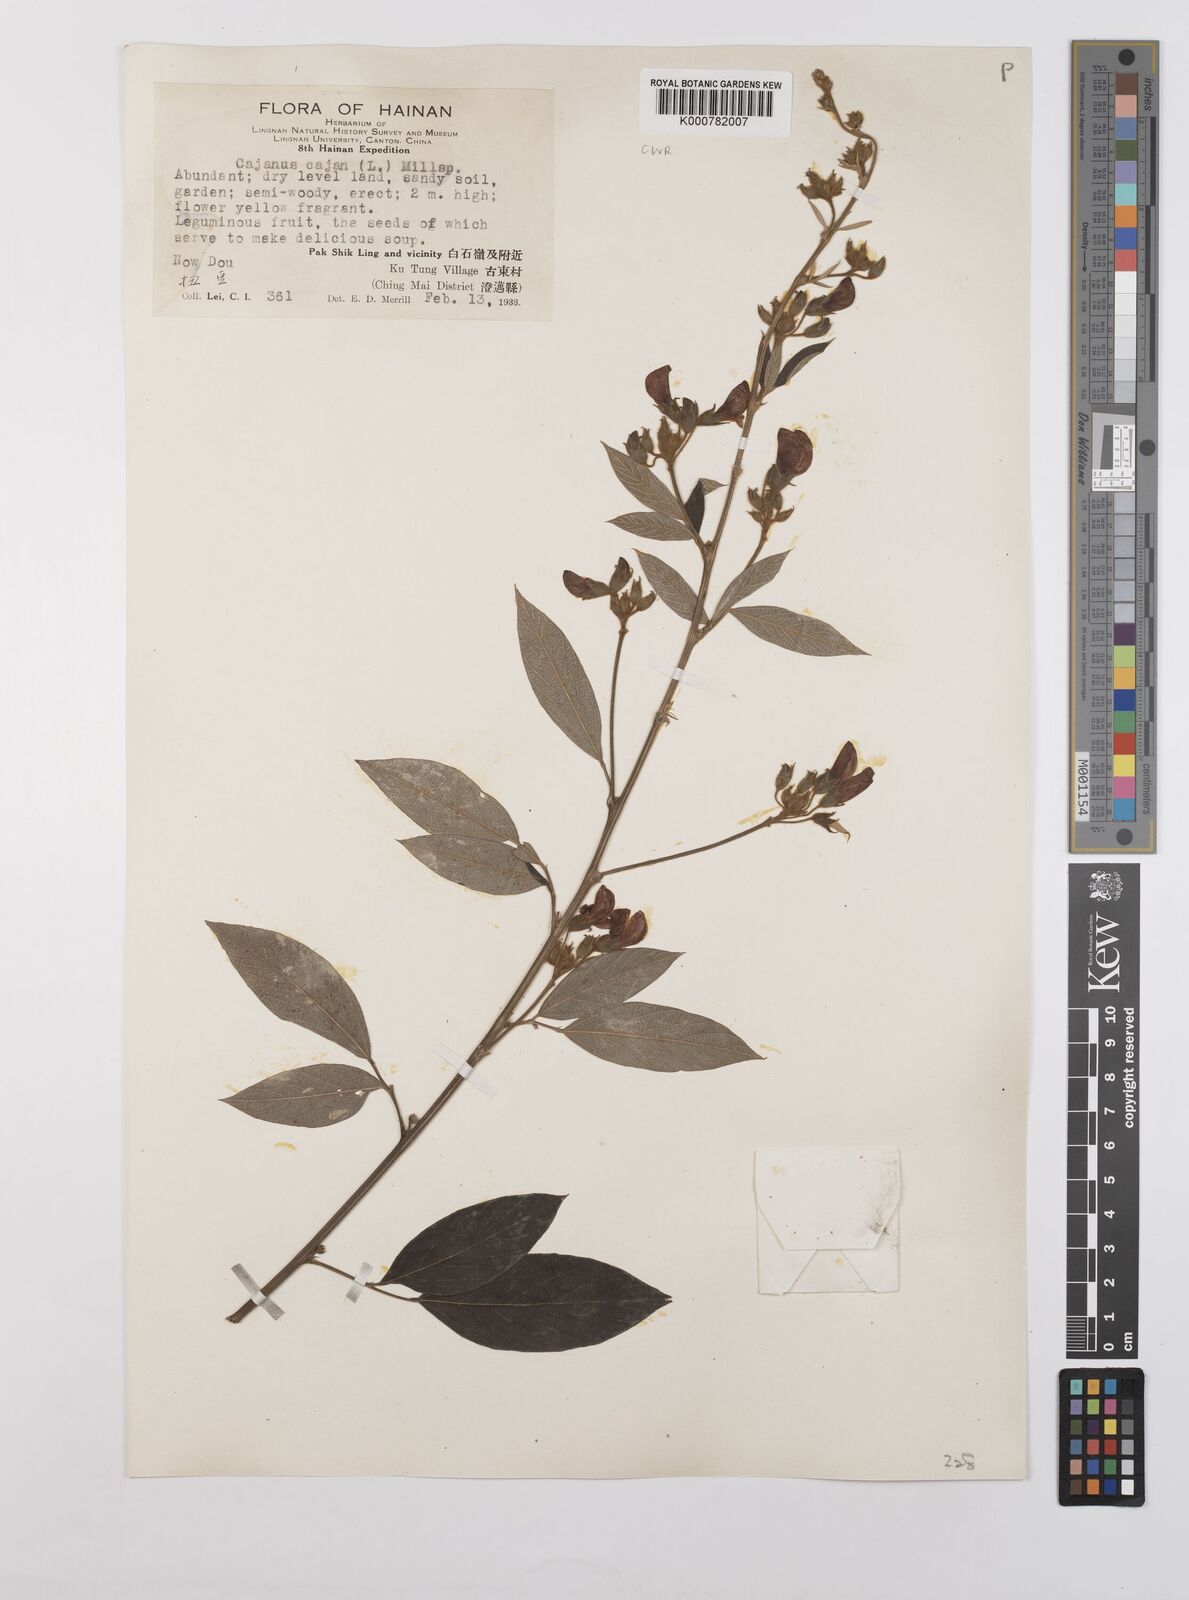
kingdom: Plantae
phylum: Tracheophyta
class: Magnoliopsida
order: Fabales
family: Fabaceae
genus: Cajanus
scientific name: Cajanus
